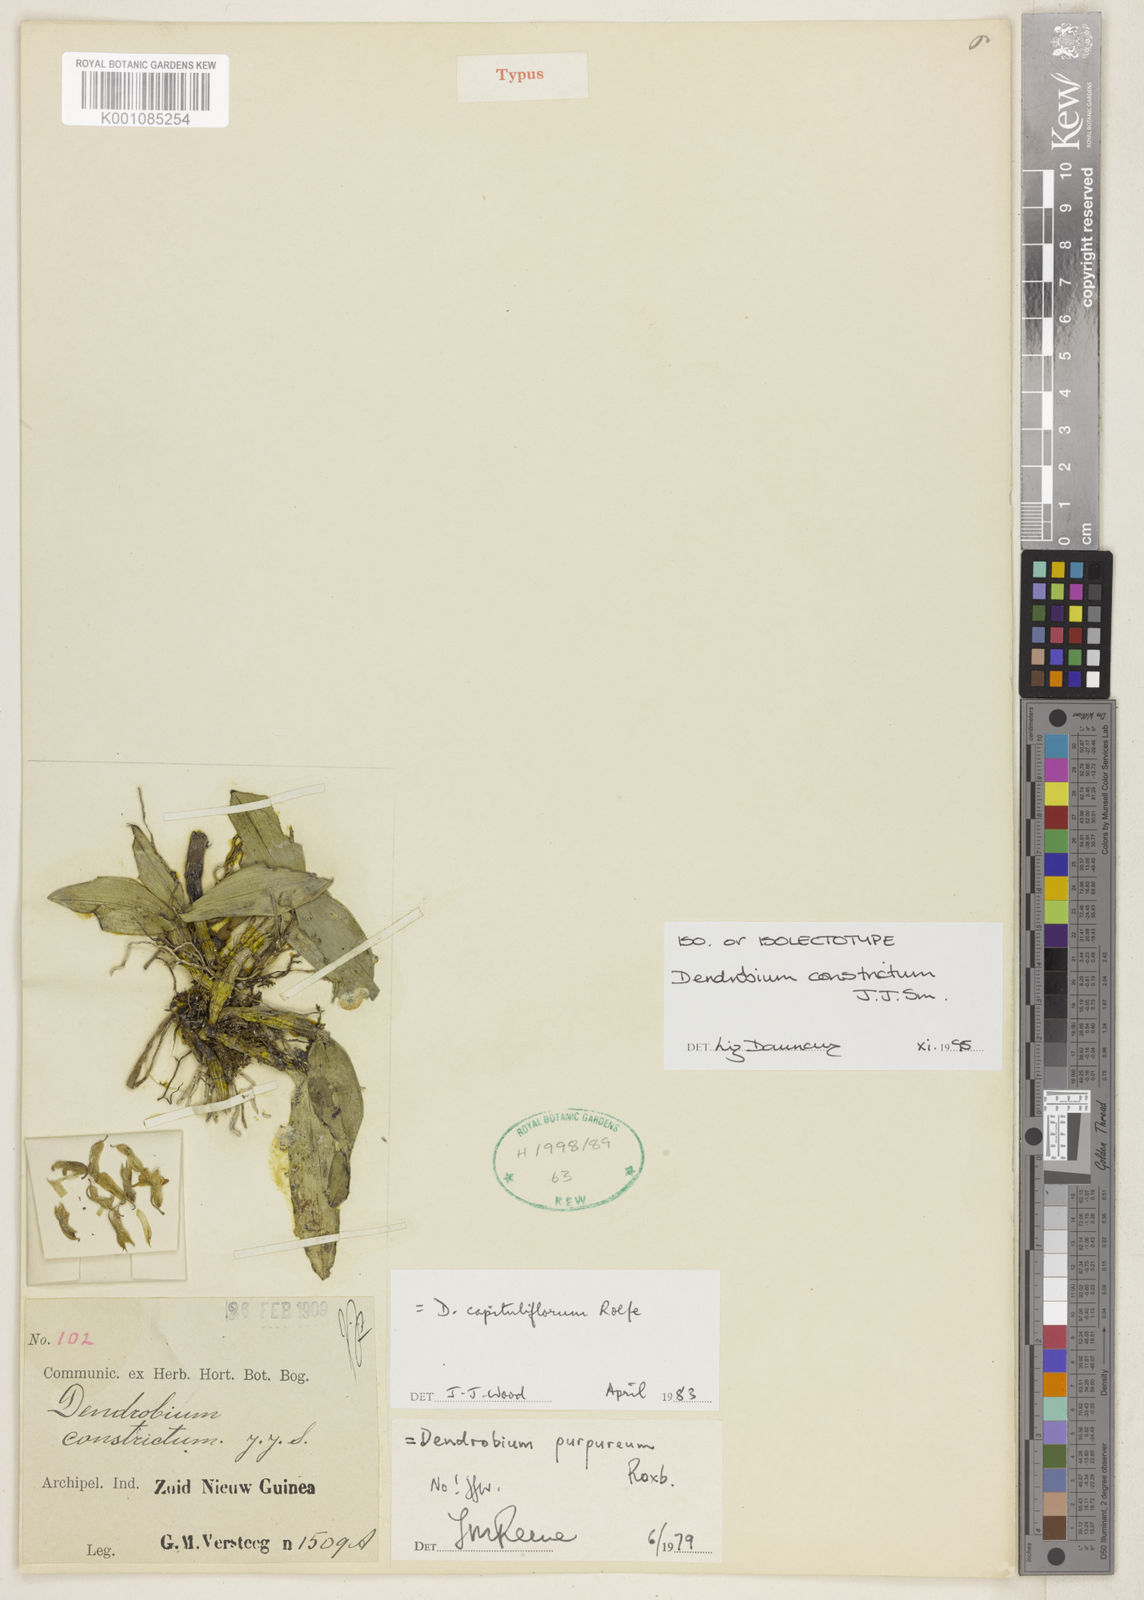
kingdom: Plantae
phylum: Tracheophyta
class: Liliopsida
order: Asparagales
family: Orchidaceae
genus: Dendrobium
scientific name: Dendrobium constrictum
